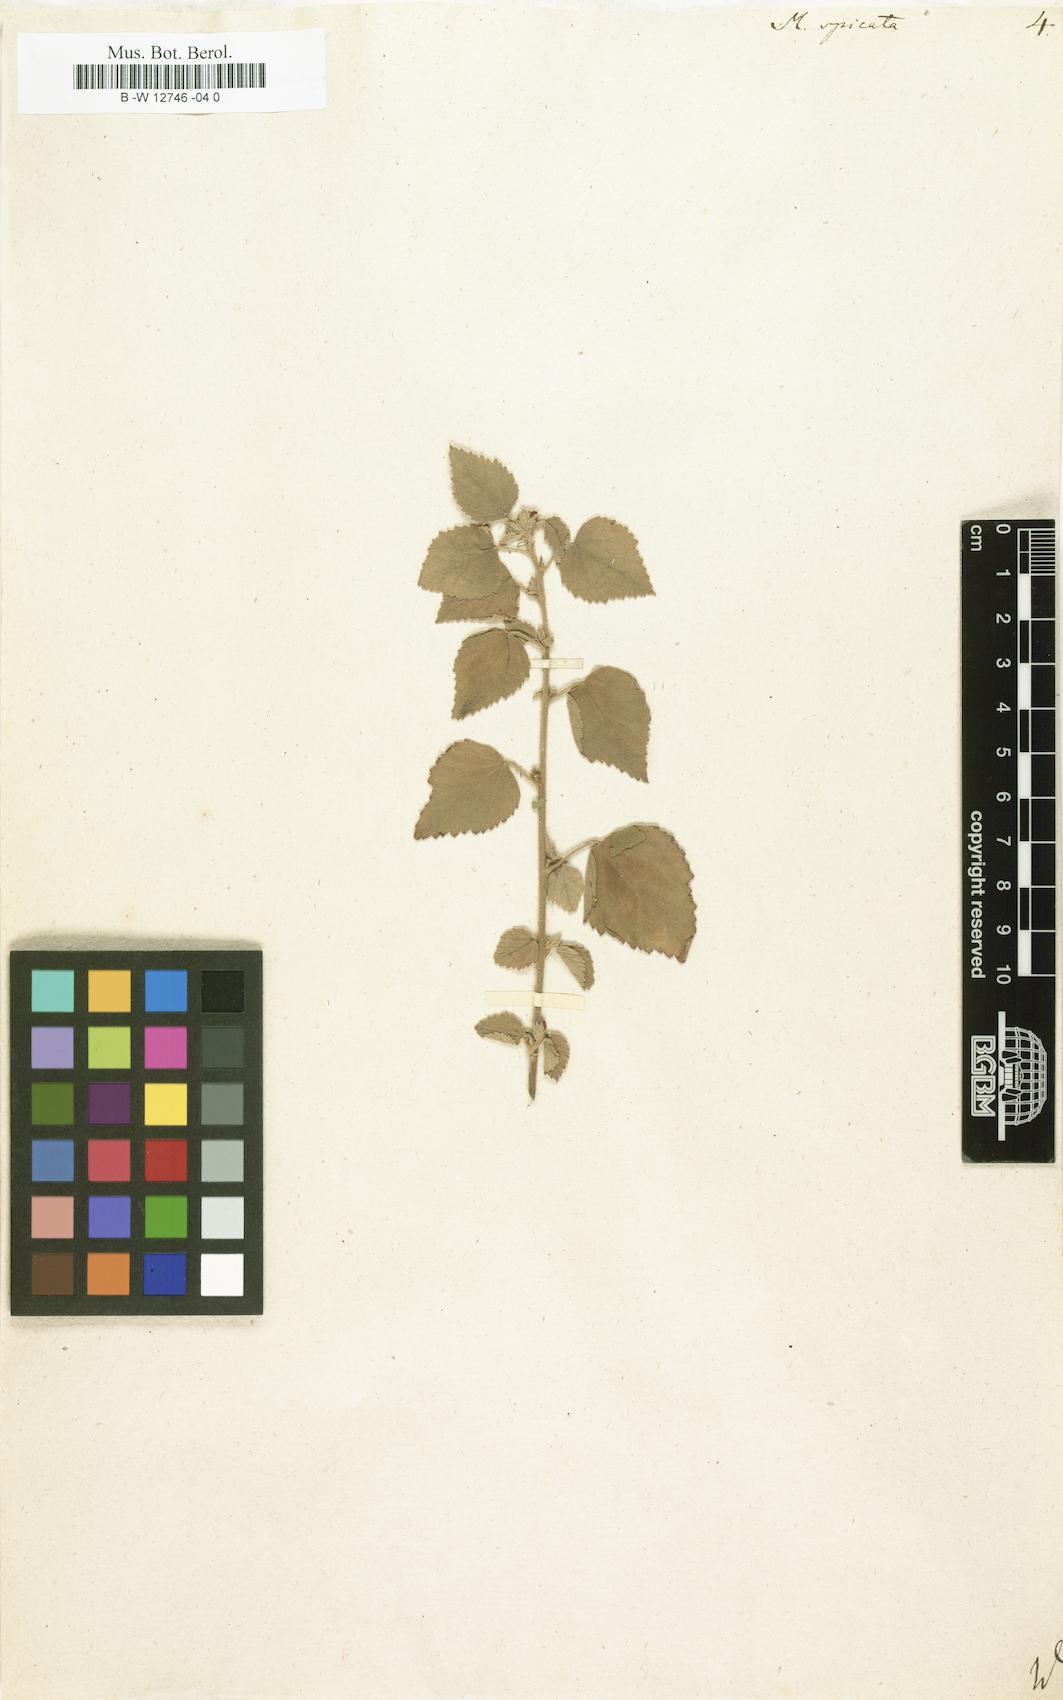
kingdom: Plantae
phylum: Tracheophyta
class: Magnoliopsida
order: Malvales
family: Malvaceae
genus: Melochia
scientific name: Melochia spicata
